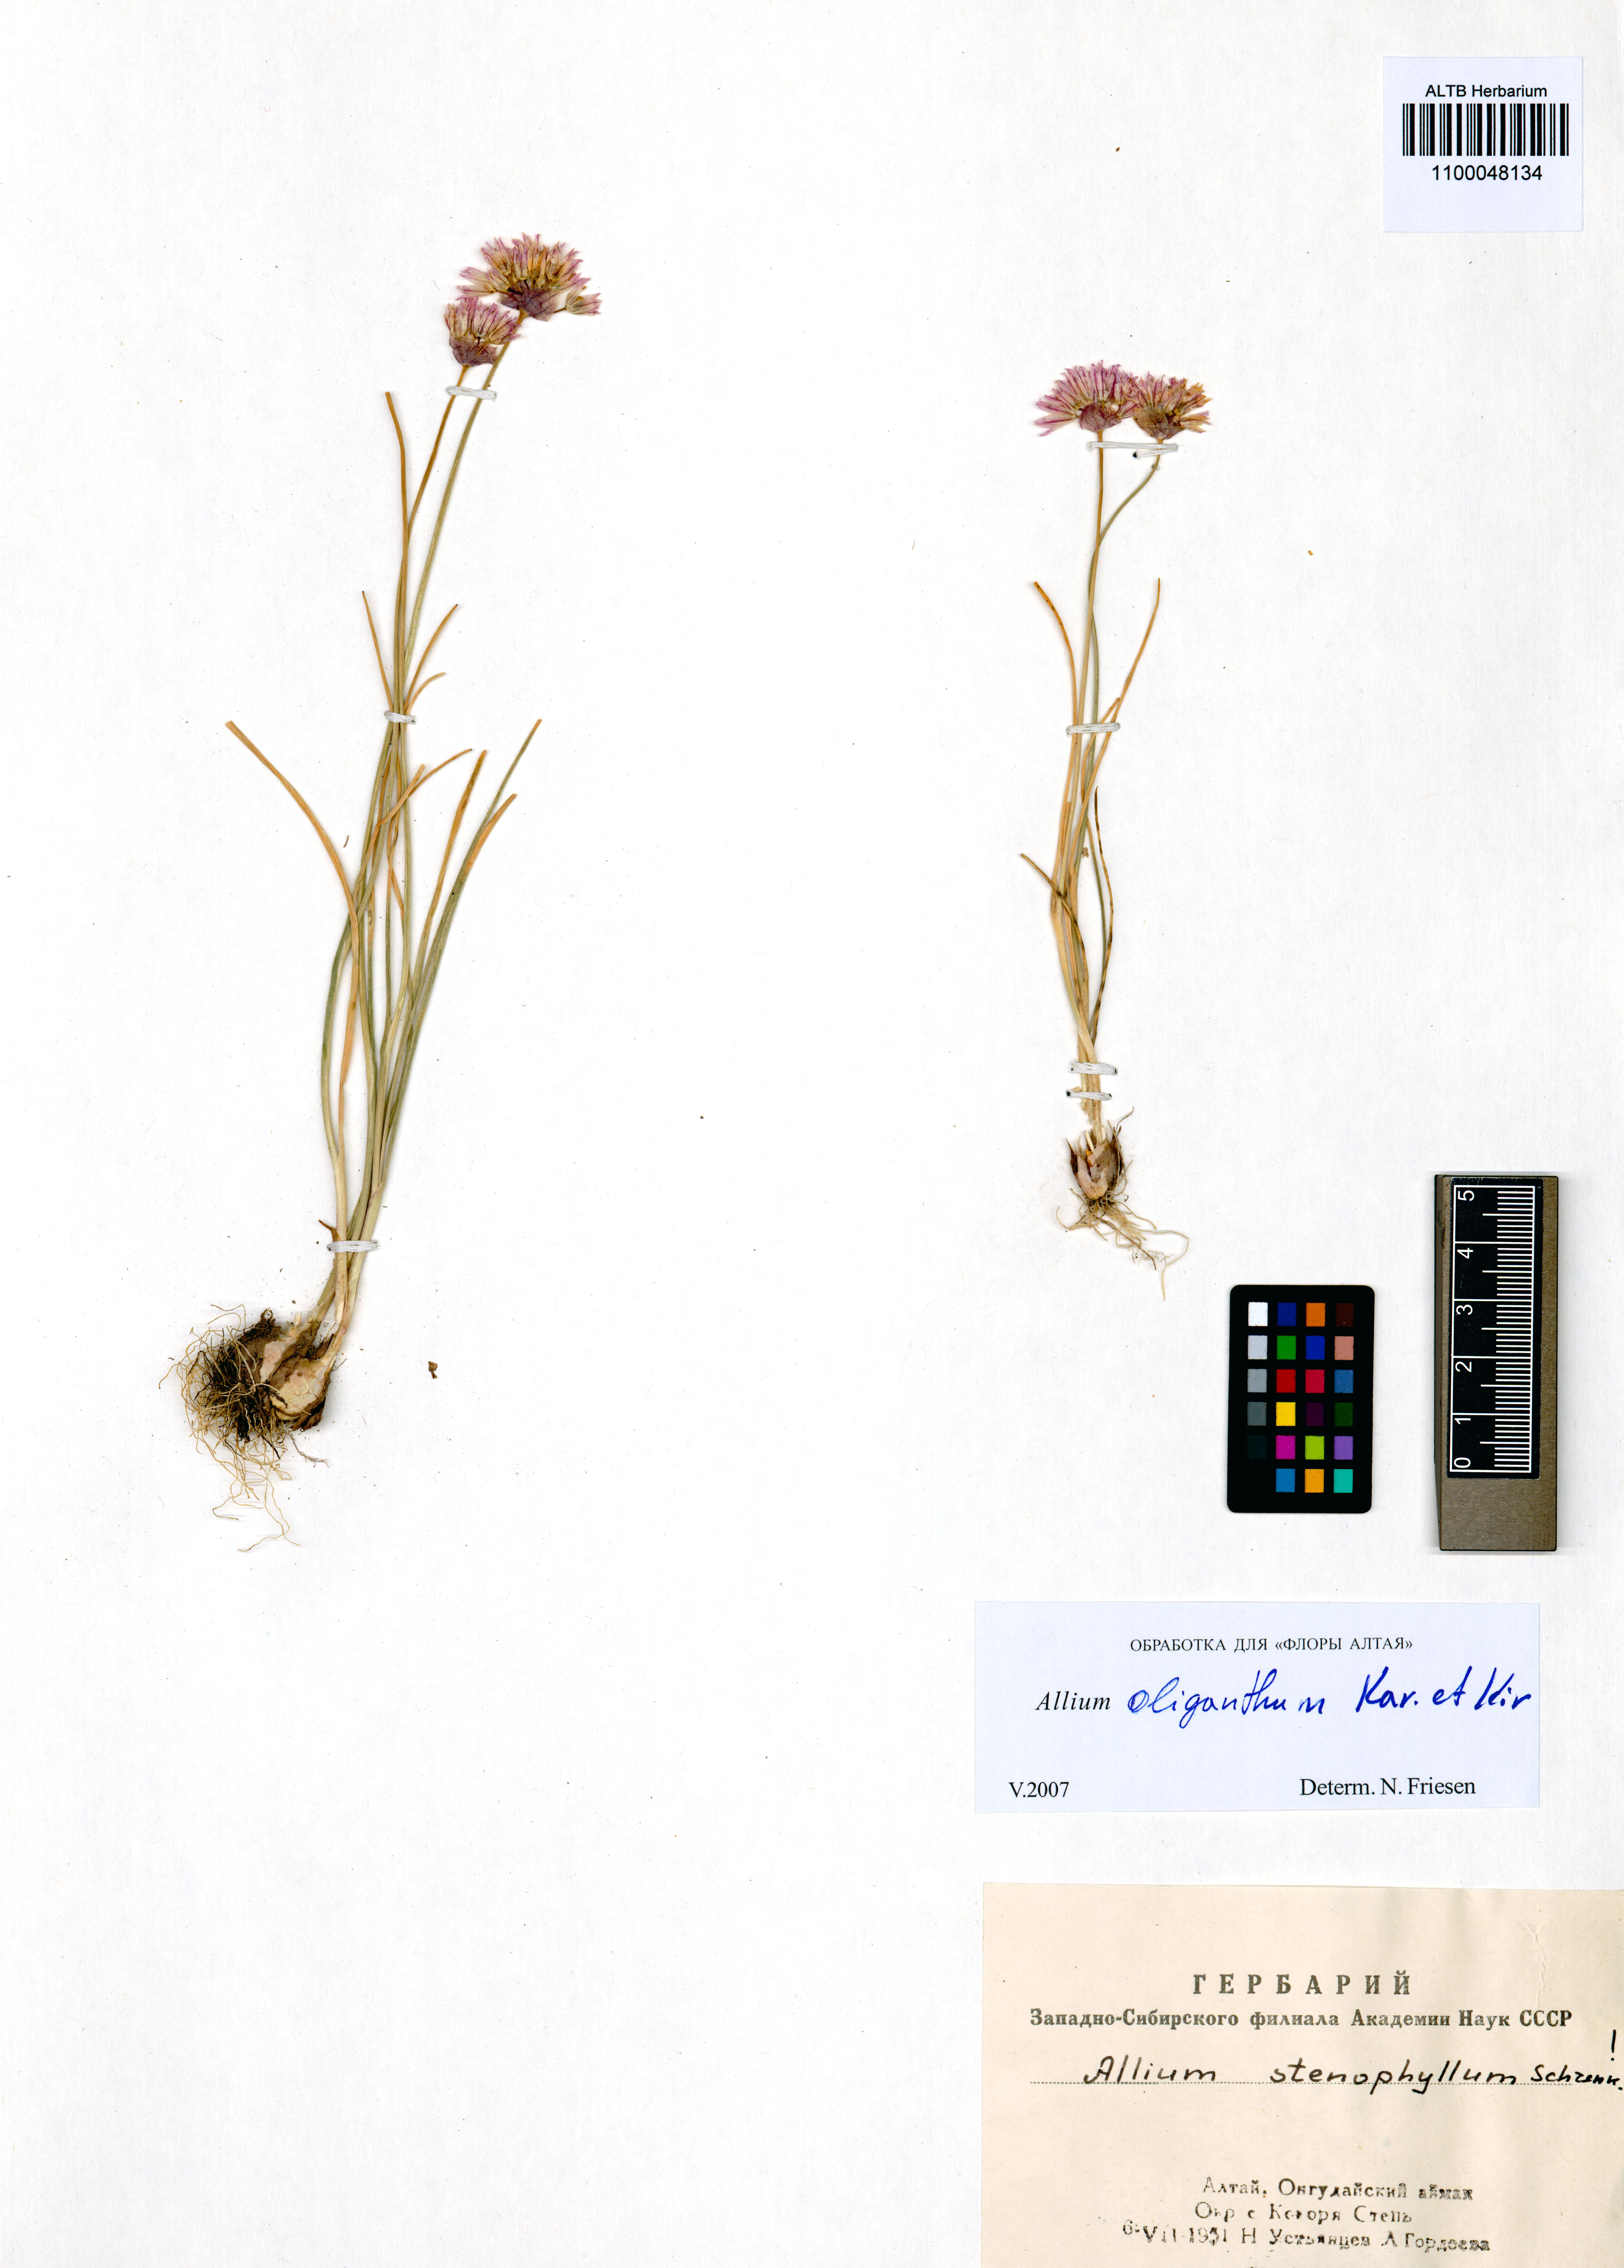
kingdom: Plantae
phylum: Tracheophyta
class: Liliopsida
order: Asparagales
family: Amaryllidaceae
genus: Allium
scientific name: Allium oliganthum
